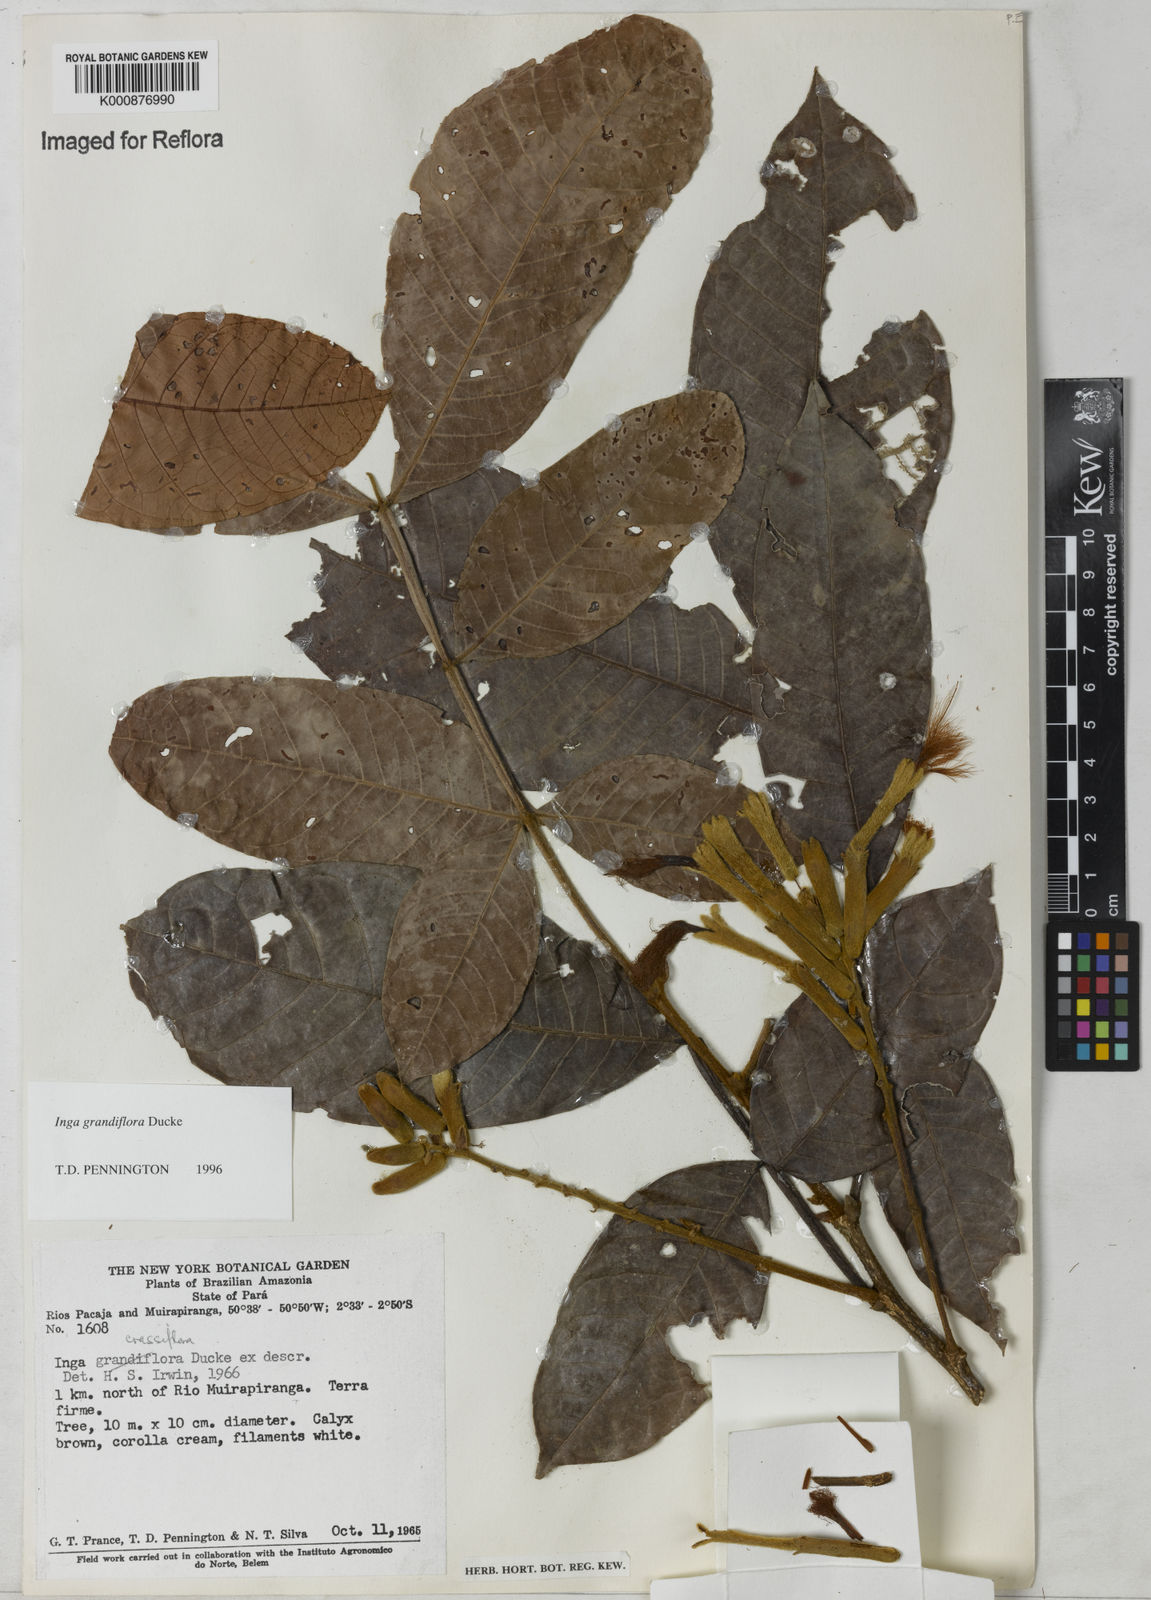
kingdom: Plantae
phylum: Tracheophyta
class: Magnoliopsida
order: Fabales
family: Fabaceae
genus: Inga
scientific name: Inga crassiflora
